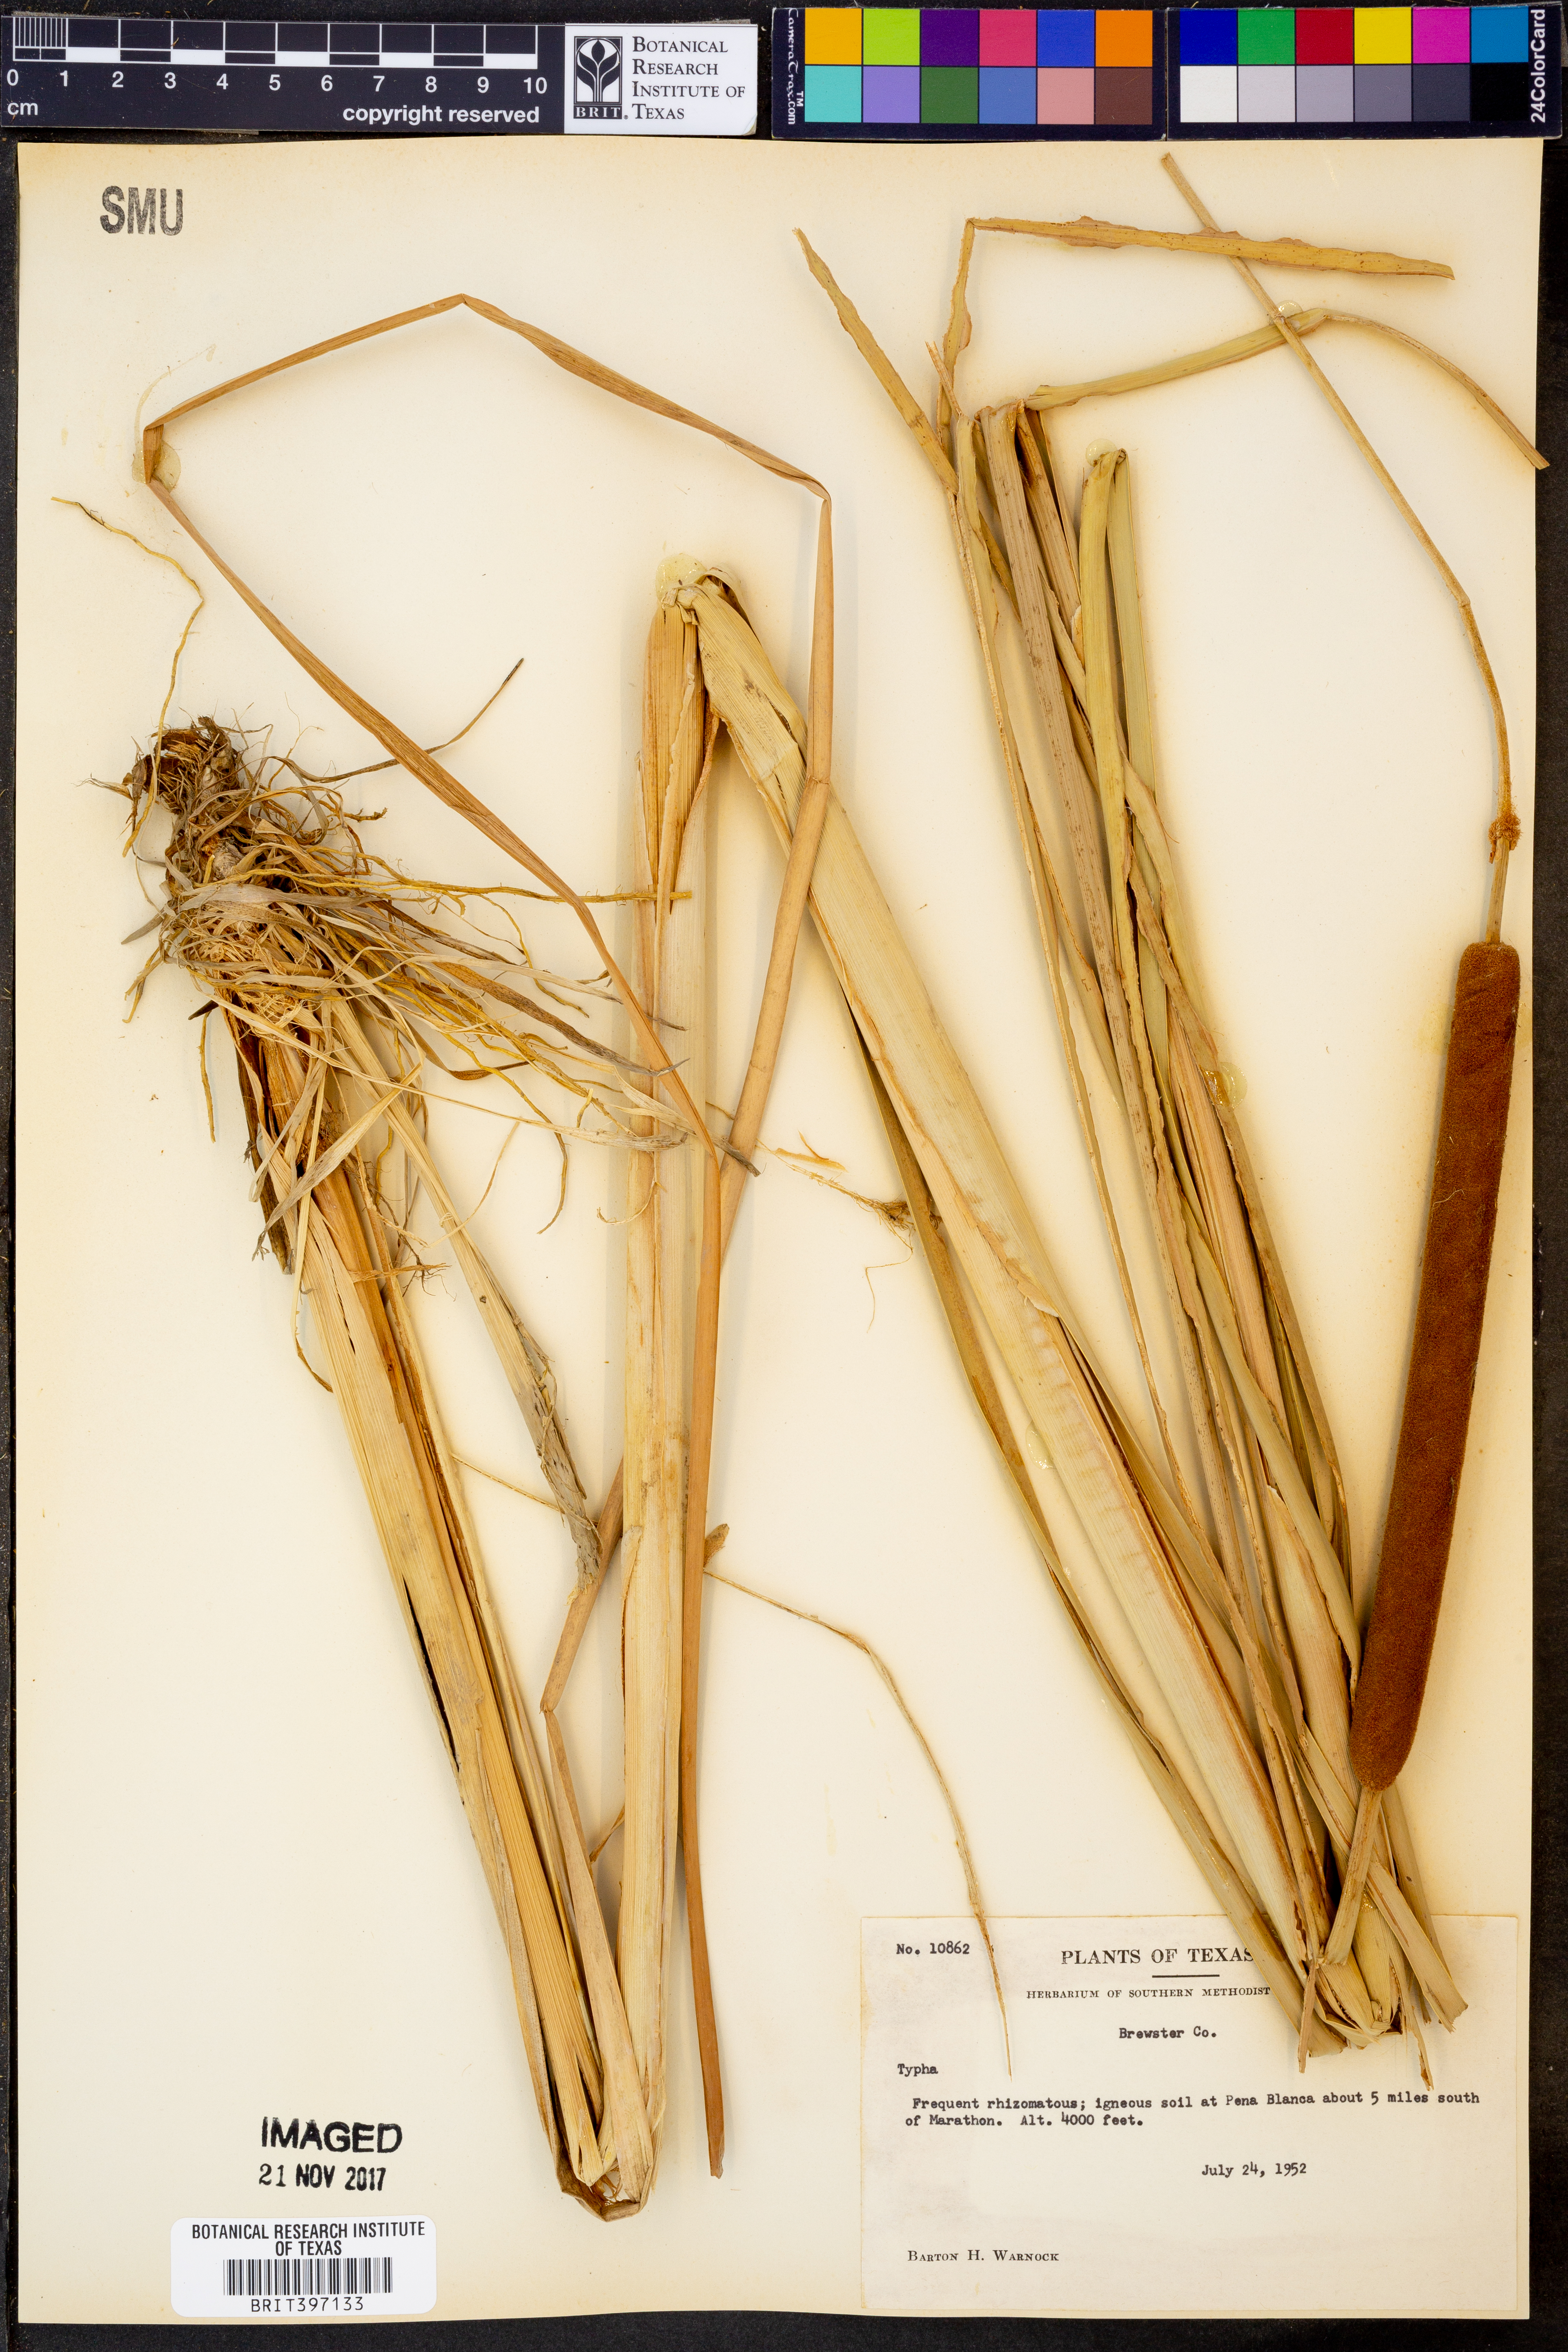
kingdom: Plantae
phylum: Tracheophyta
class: Liliopsida
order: Poales
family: Typhaceae
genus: Typha
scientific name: Typha
